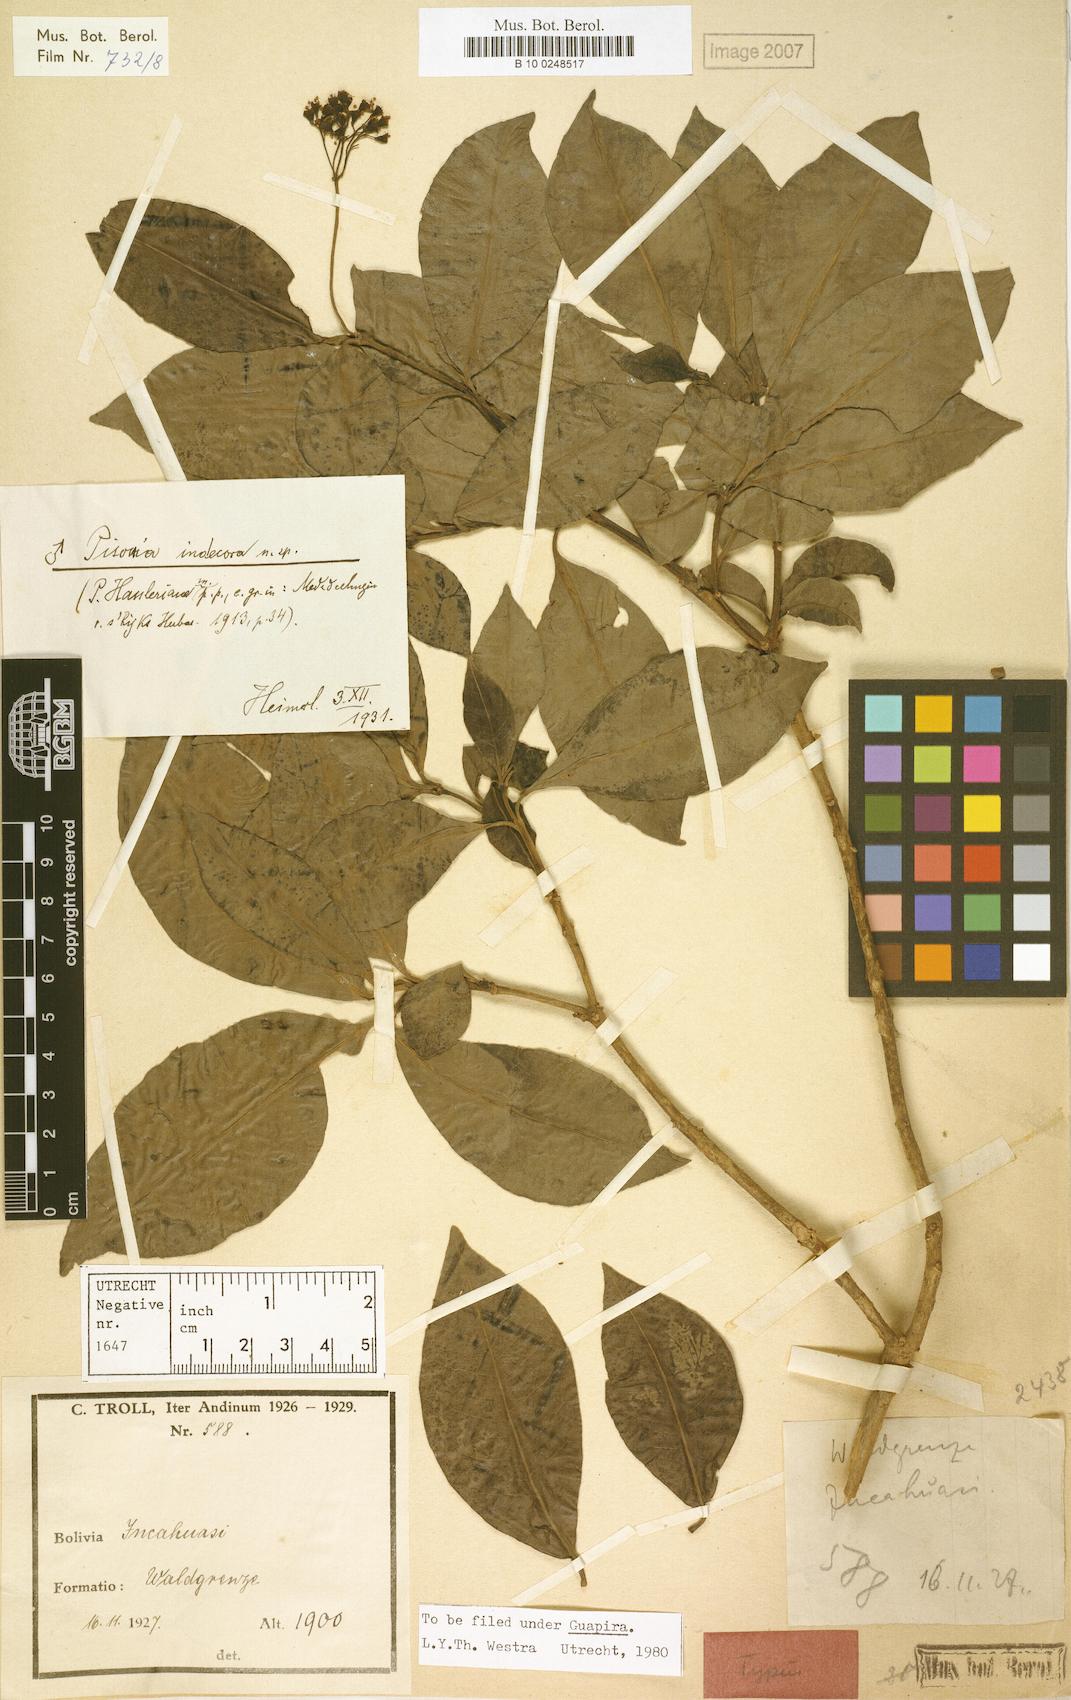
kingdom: Plantae
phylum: Tracheophyta
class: Magnoliopsida
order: Caryophyllales
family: Nyctaginaceae
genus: Pisonia
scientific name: Pisonia indecora
